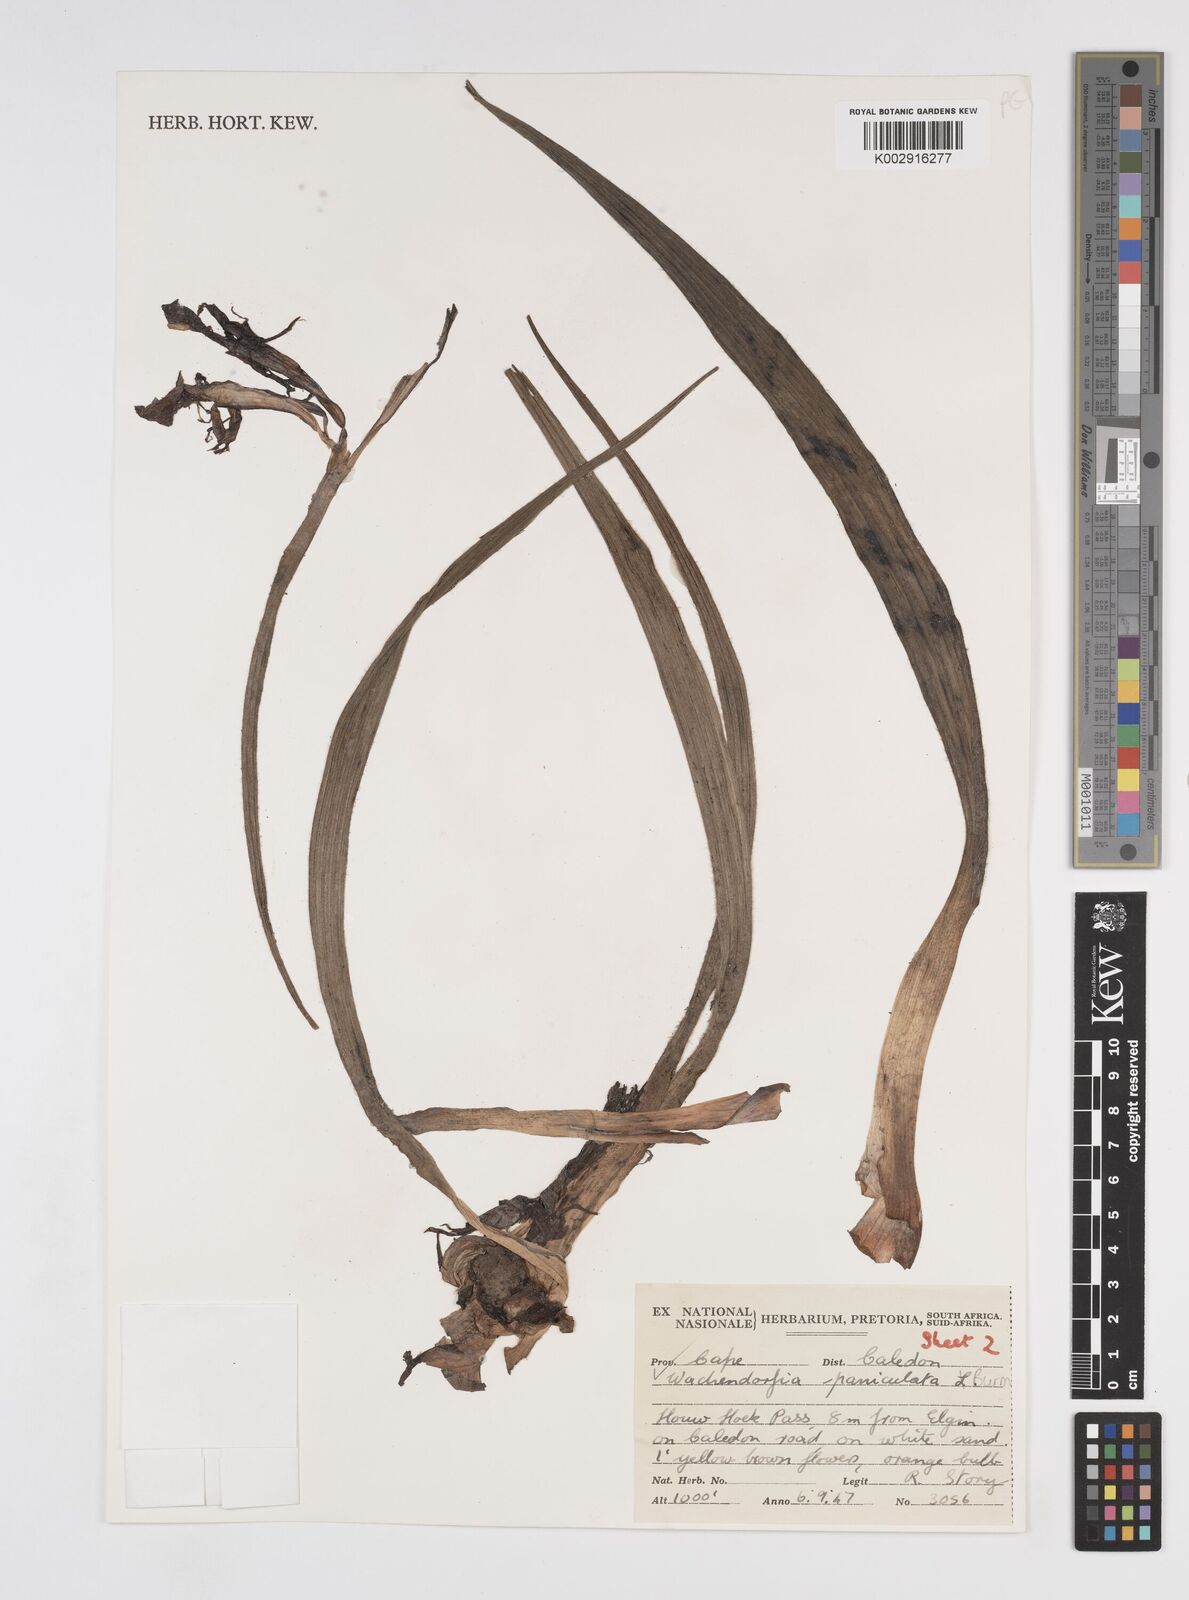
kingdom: Plantae
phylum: Tracheophyta
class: Liliopsida
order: Commelinales
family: Haemodoraceae
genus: Wachendorfia
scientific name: Wachendorfia paniculata
